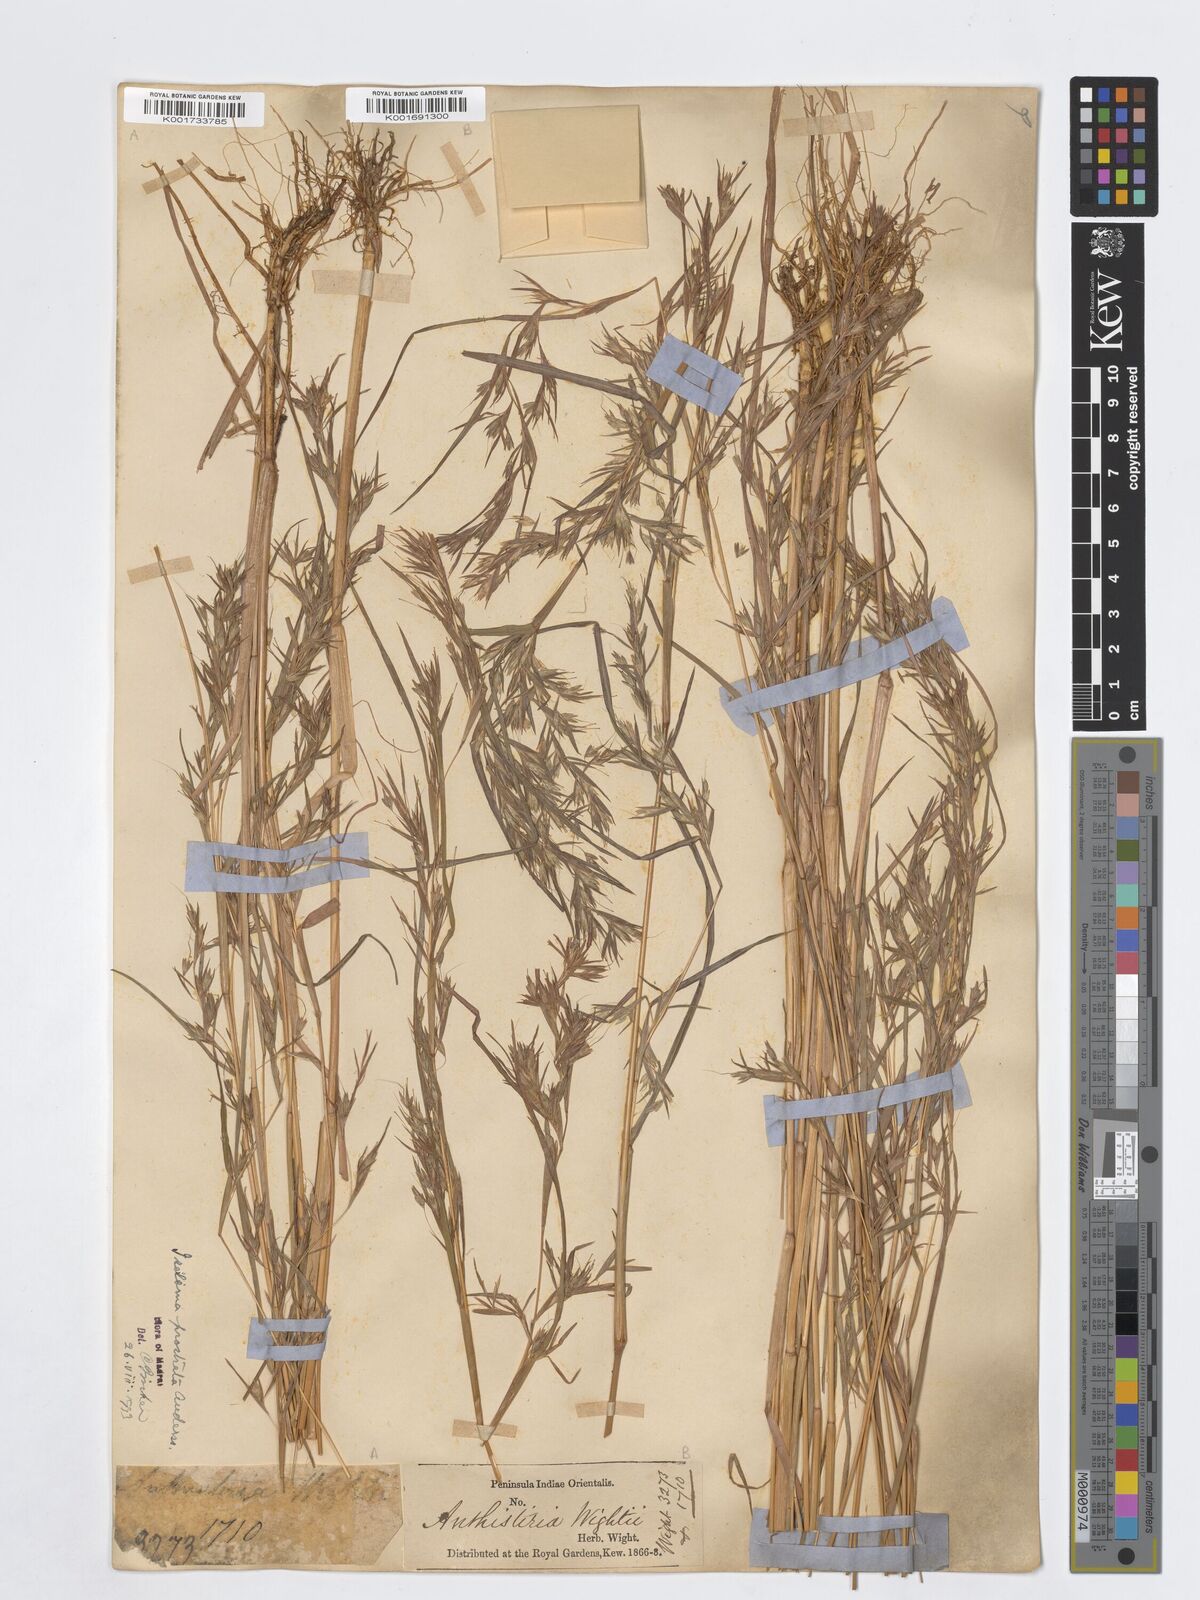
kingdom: Plantae
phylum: Tracheophyta
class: Liliopsida
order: Poales
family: Poaceae
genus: Iseilema
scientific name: Iseilema prostratum
